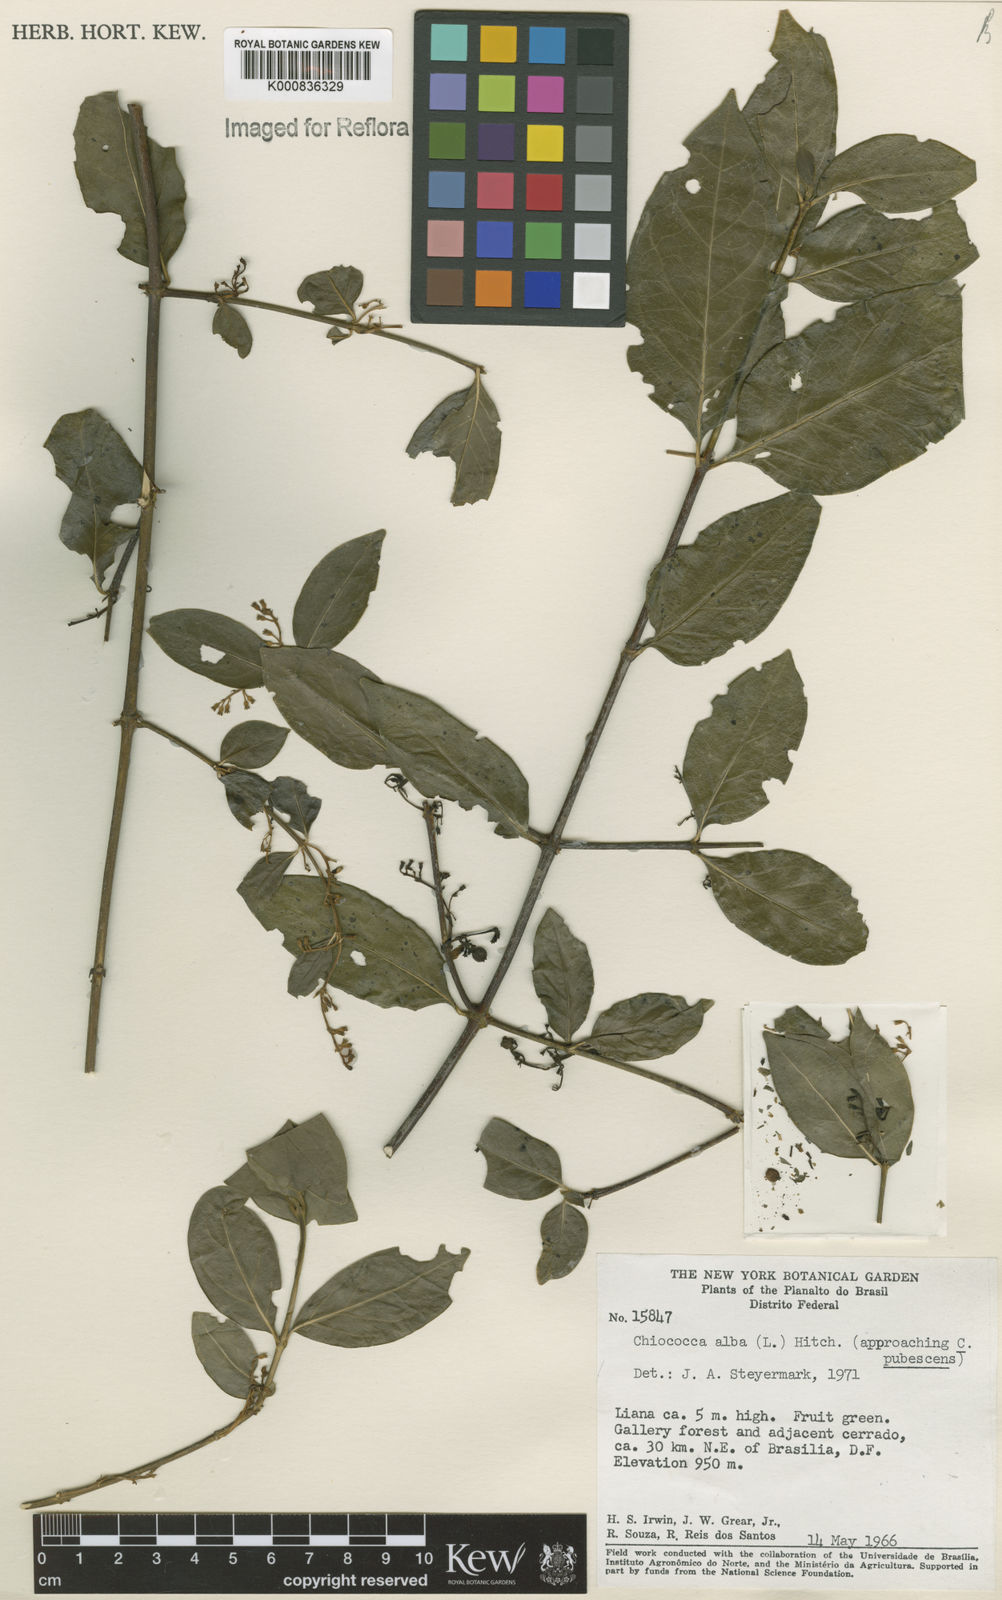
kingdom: Plantae
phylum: Tracheophyta
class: Magnoliopsida
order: Gentianales
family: Rubiaceae
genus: Chiococca
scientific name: Chiococca alba
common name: Snowberry
